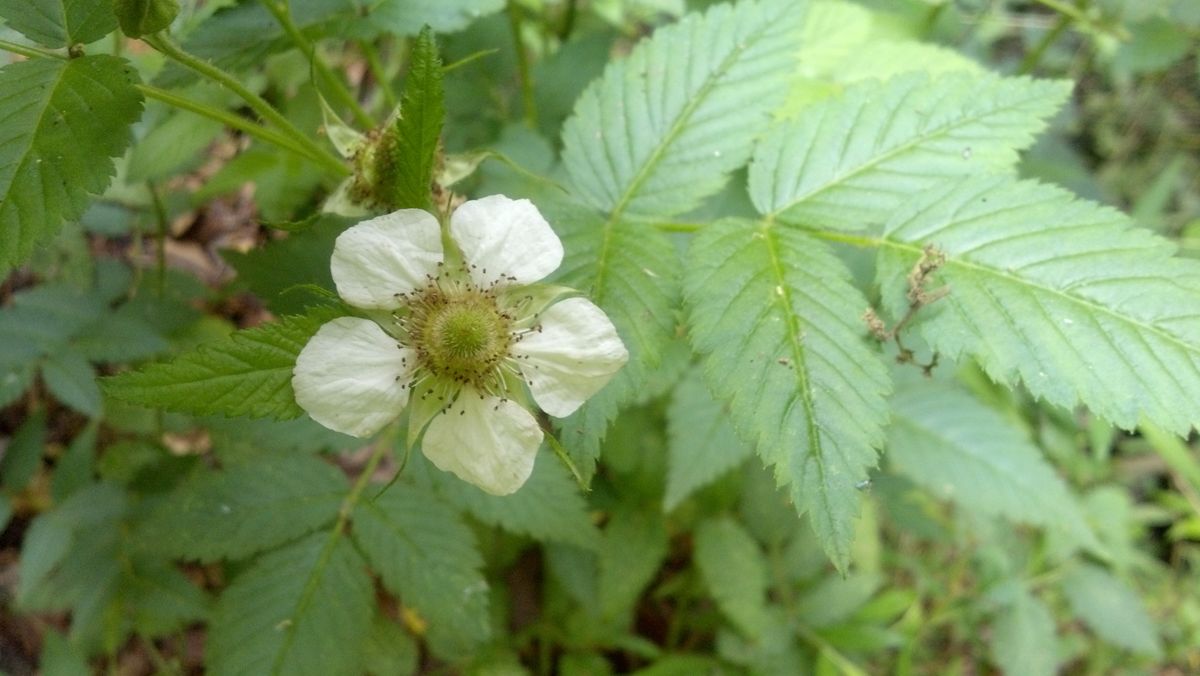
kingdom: Plantae
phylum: Tracheophyta
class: Magnoliopsida
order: Rosales
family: Rosaceae
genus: Rubus
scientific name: Rubus rosifolius
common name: Roseleaf raspberry
